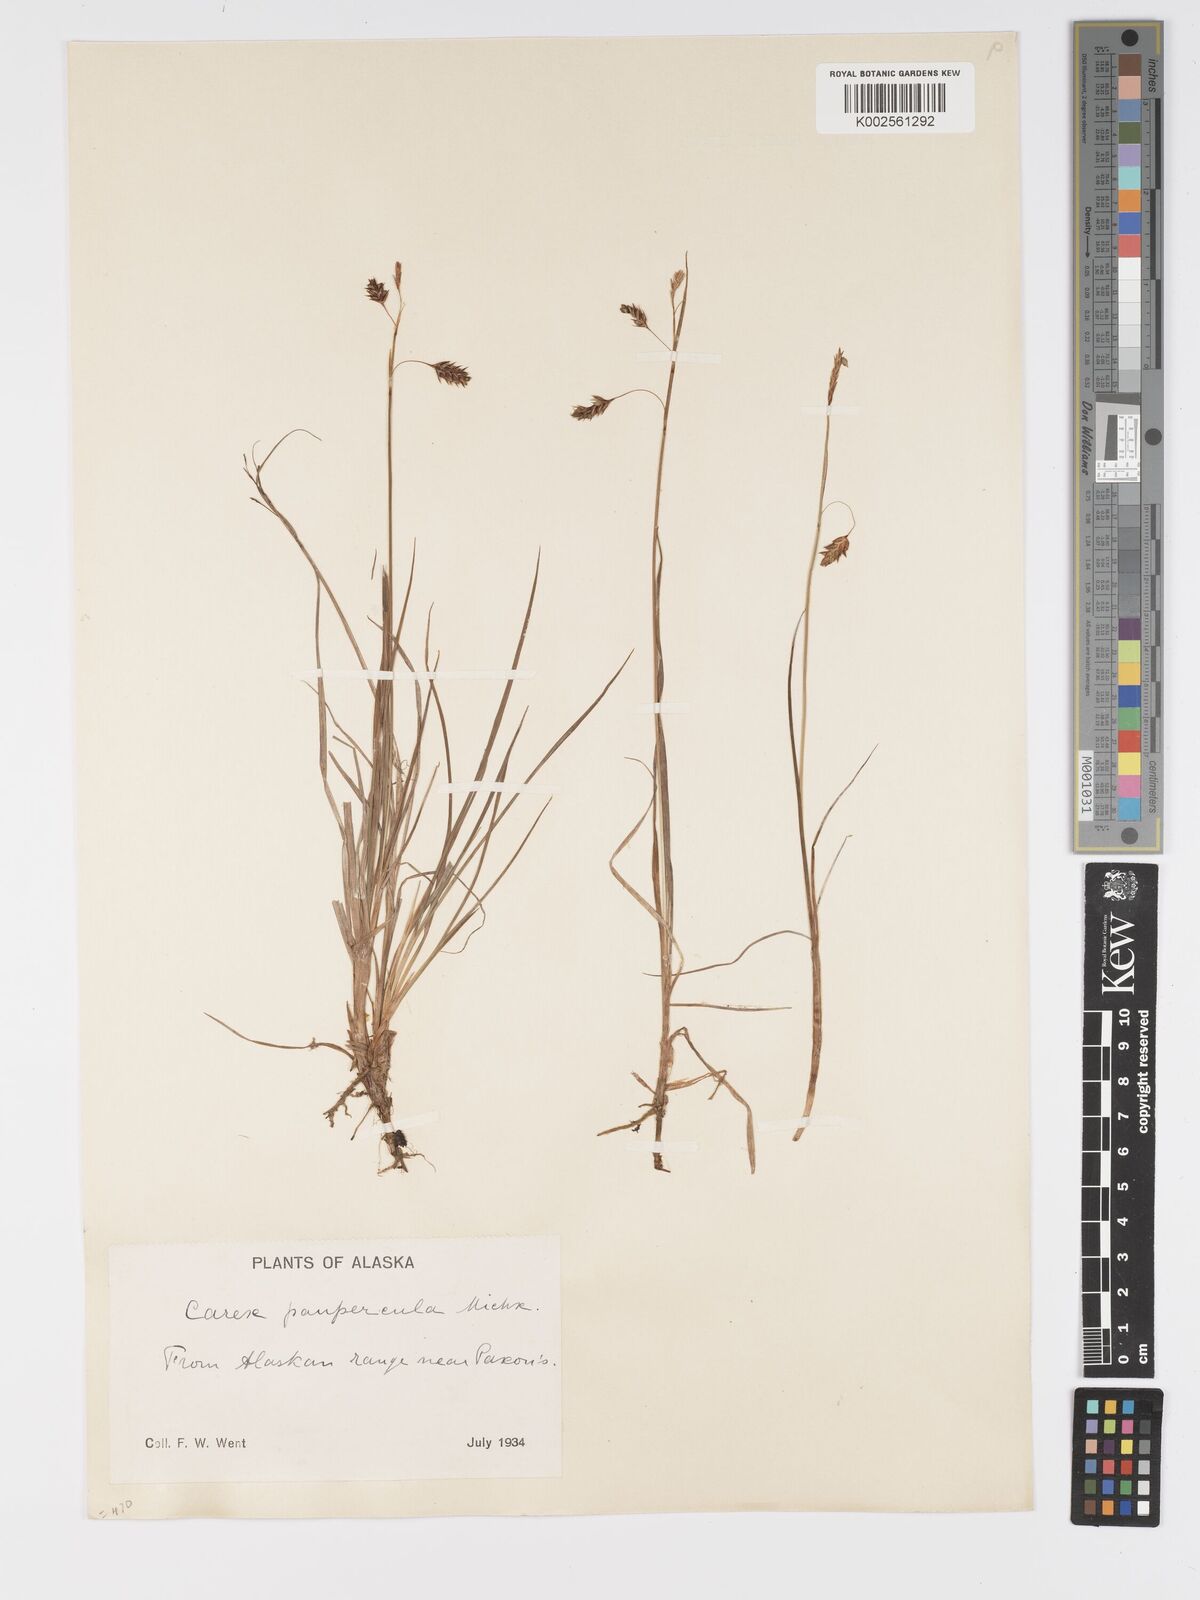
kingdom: Plantae
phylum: Tracheophyta
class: Liliopsida
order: Poales
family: Cyperaceae
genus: Carex
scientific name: Carex magellanica
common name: Bog sedge
